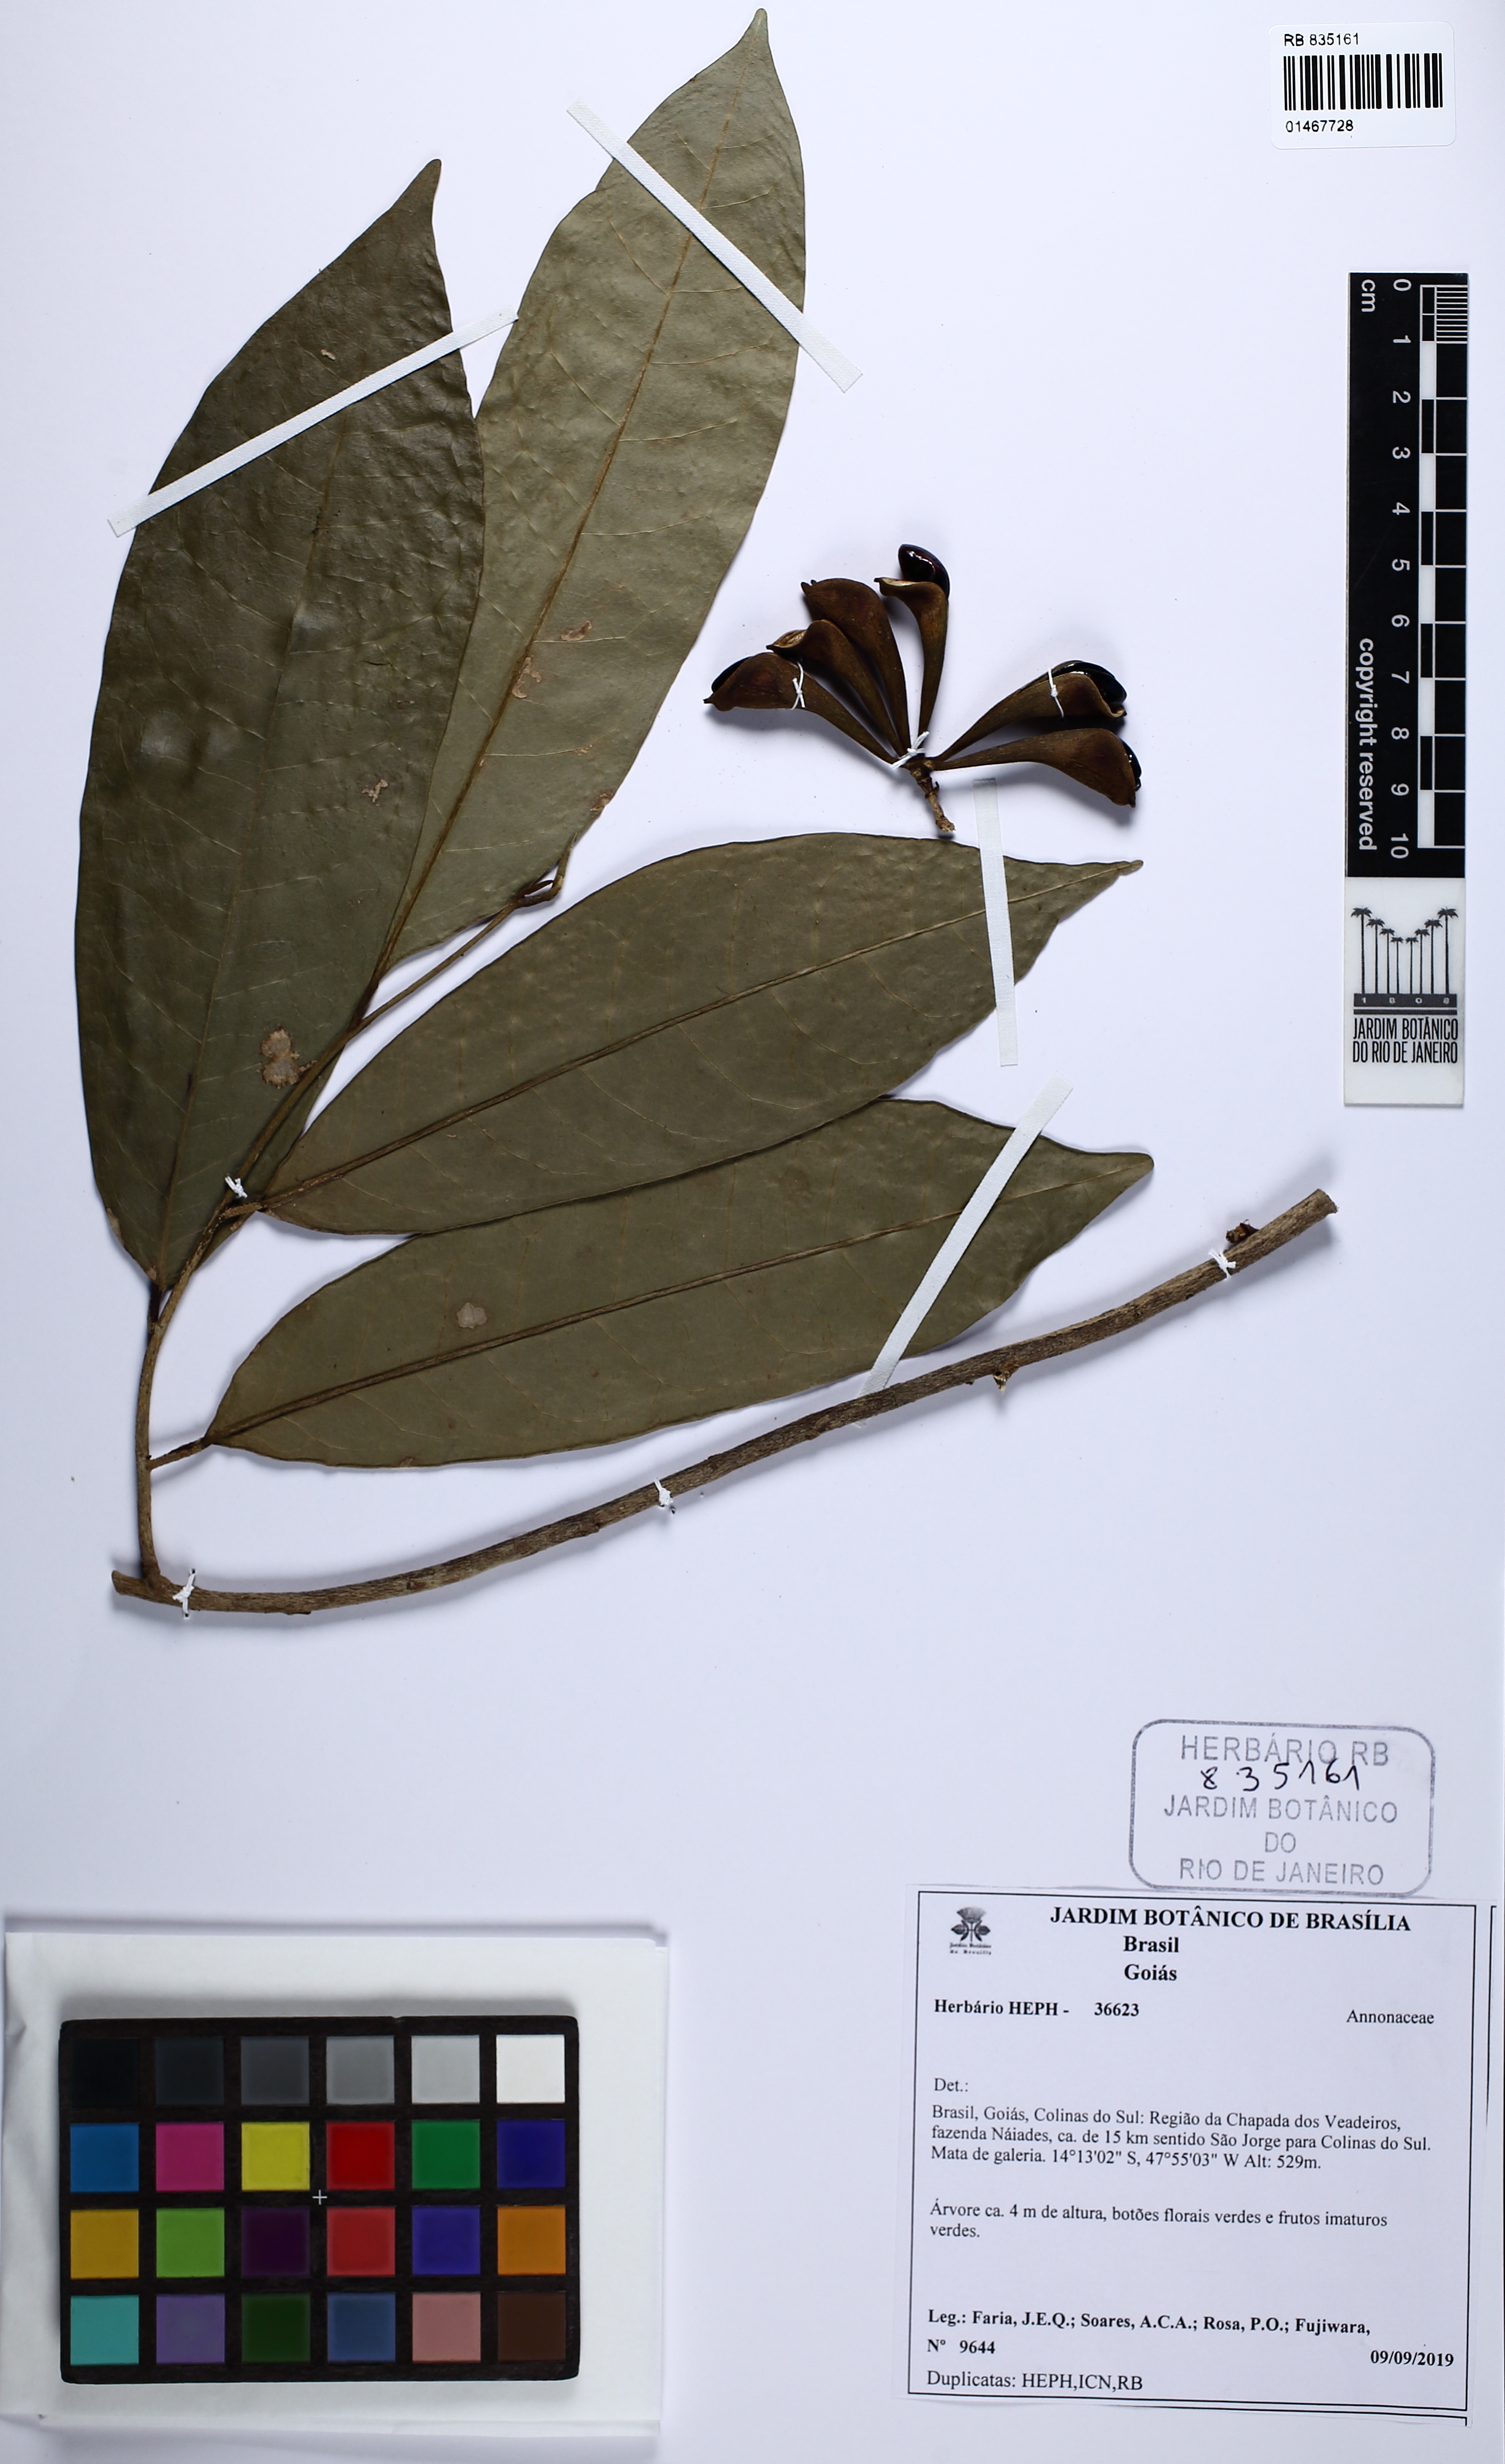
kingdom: Plantae
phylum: Tracheophyta
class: Magnoliopsida
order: Magnoliales
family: Annonaceae
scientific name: Annonaceae
